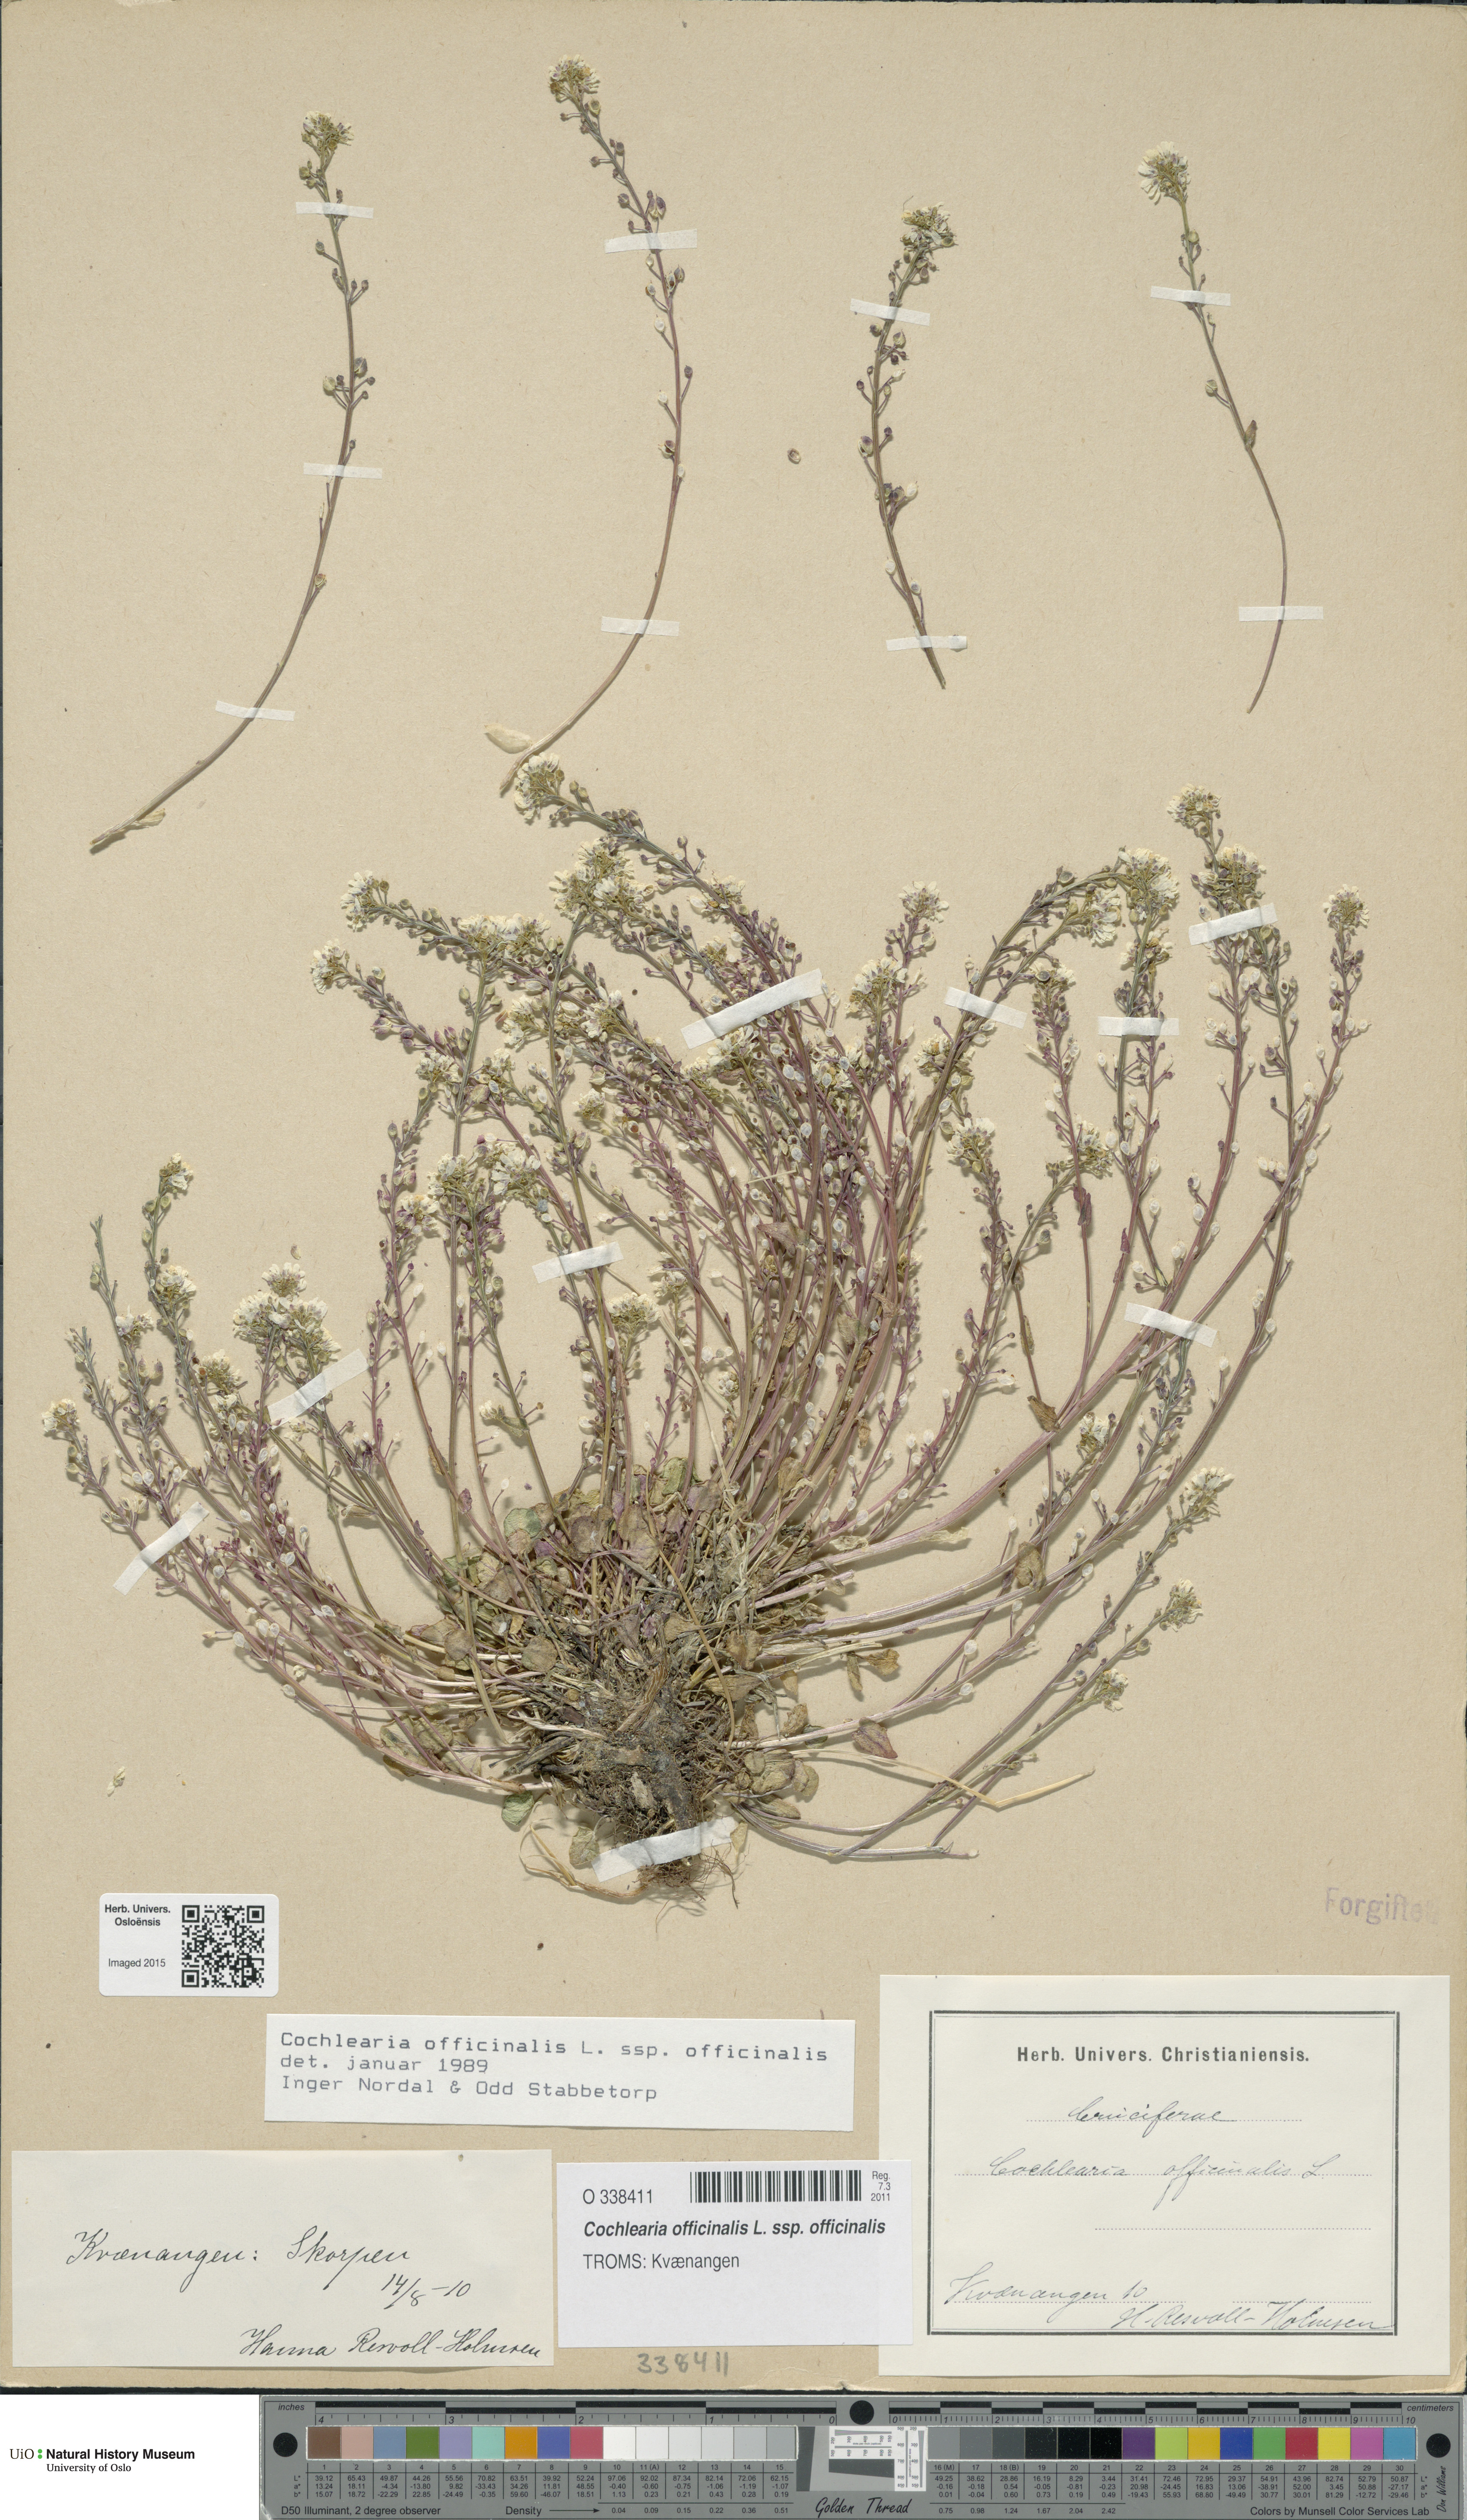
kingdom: Plantae
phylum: Tracheophyta
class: Magnoliopsida
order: Brassicales
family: Brassicaceae
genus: Cochlearia
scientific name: Cochlearia officinalis
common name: Scurvy-grass
